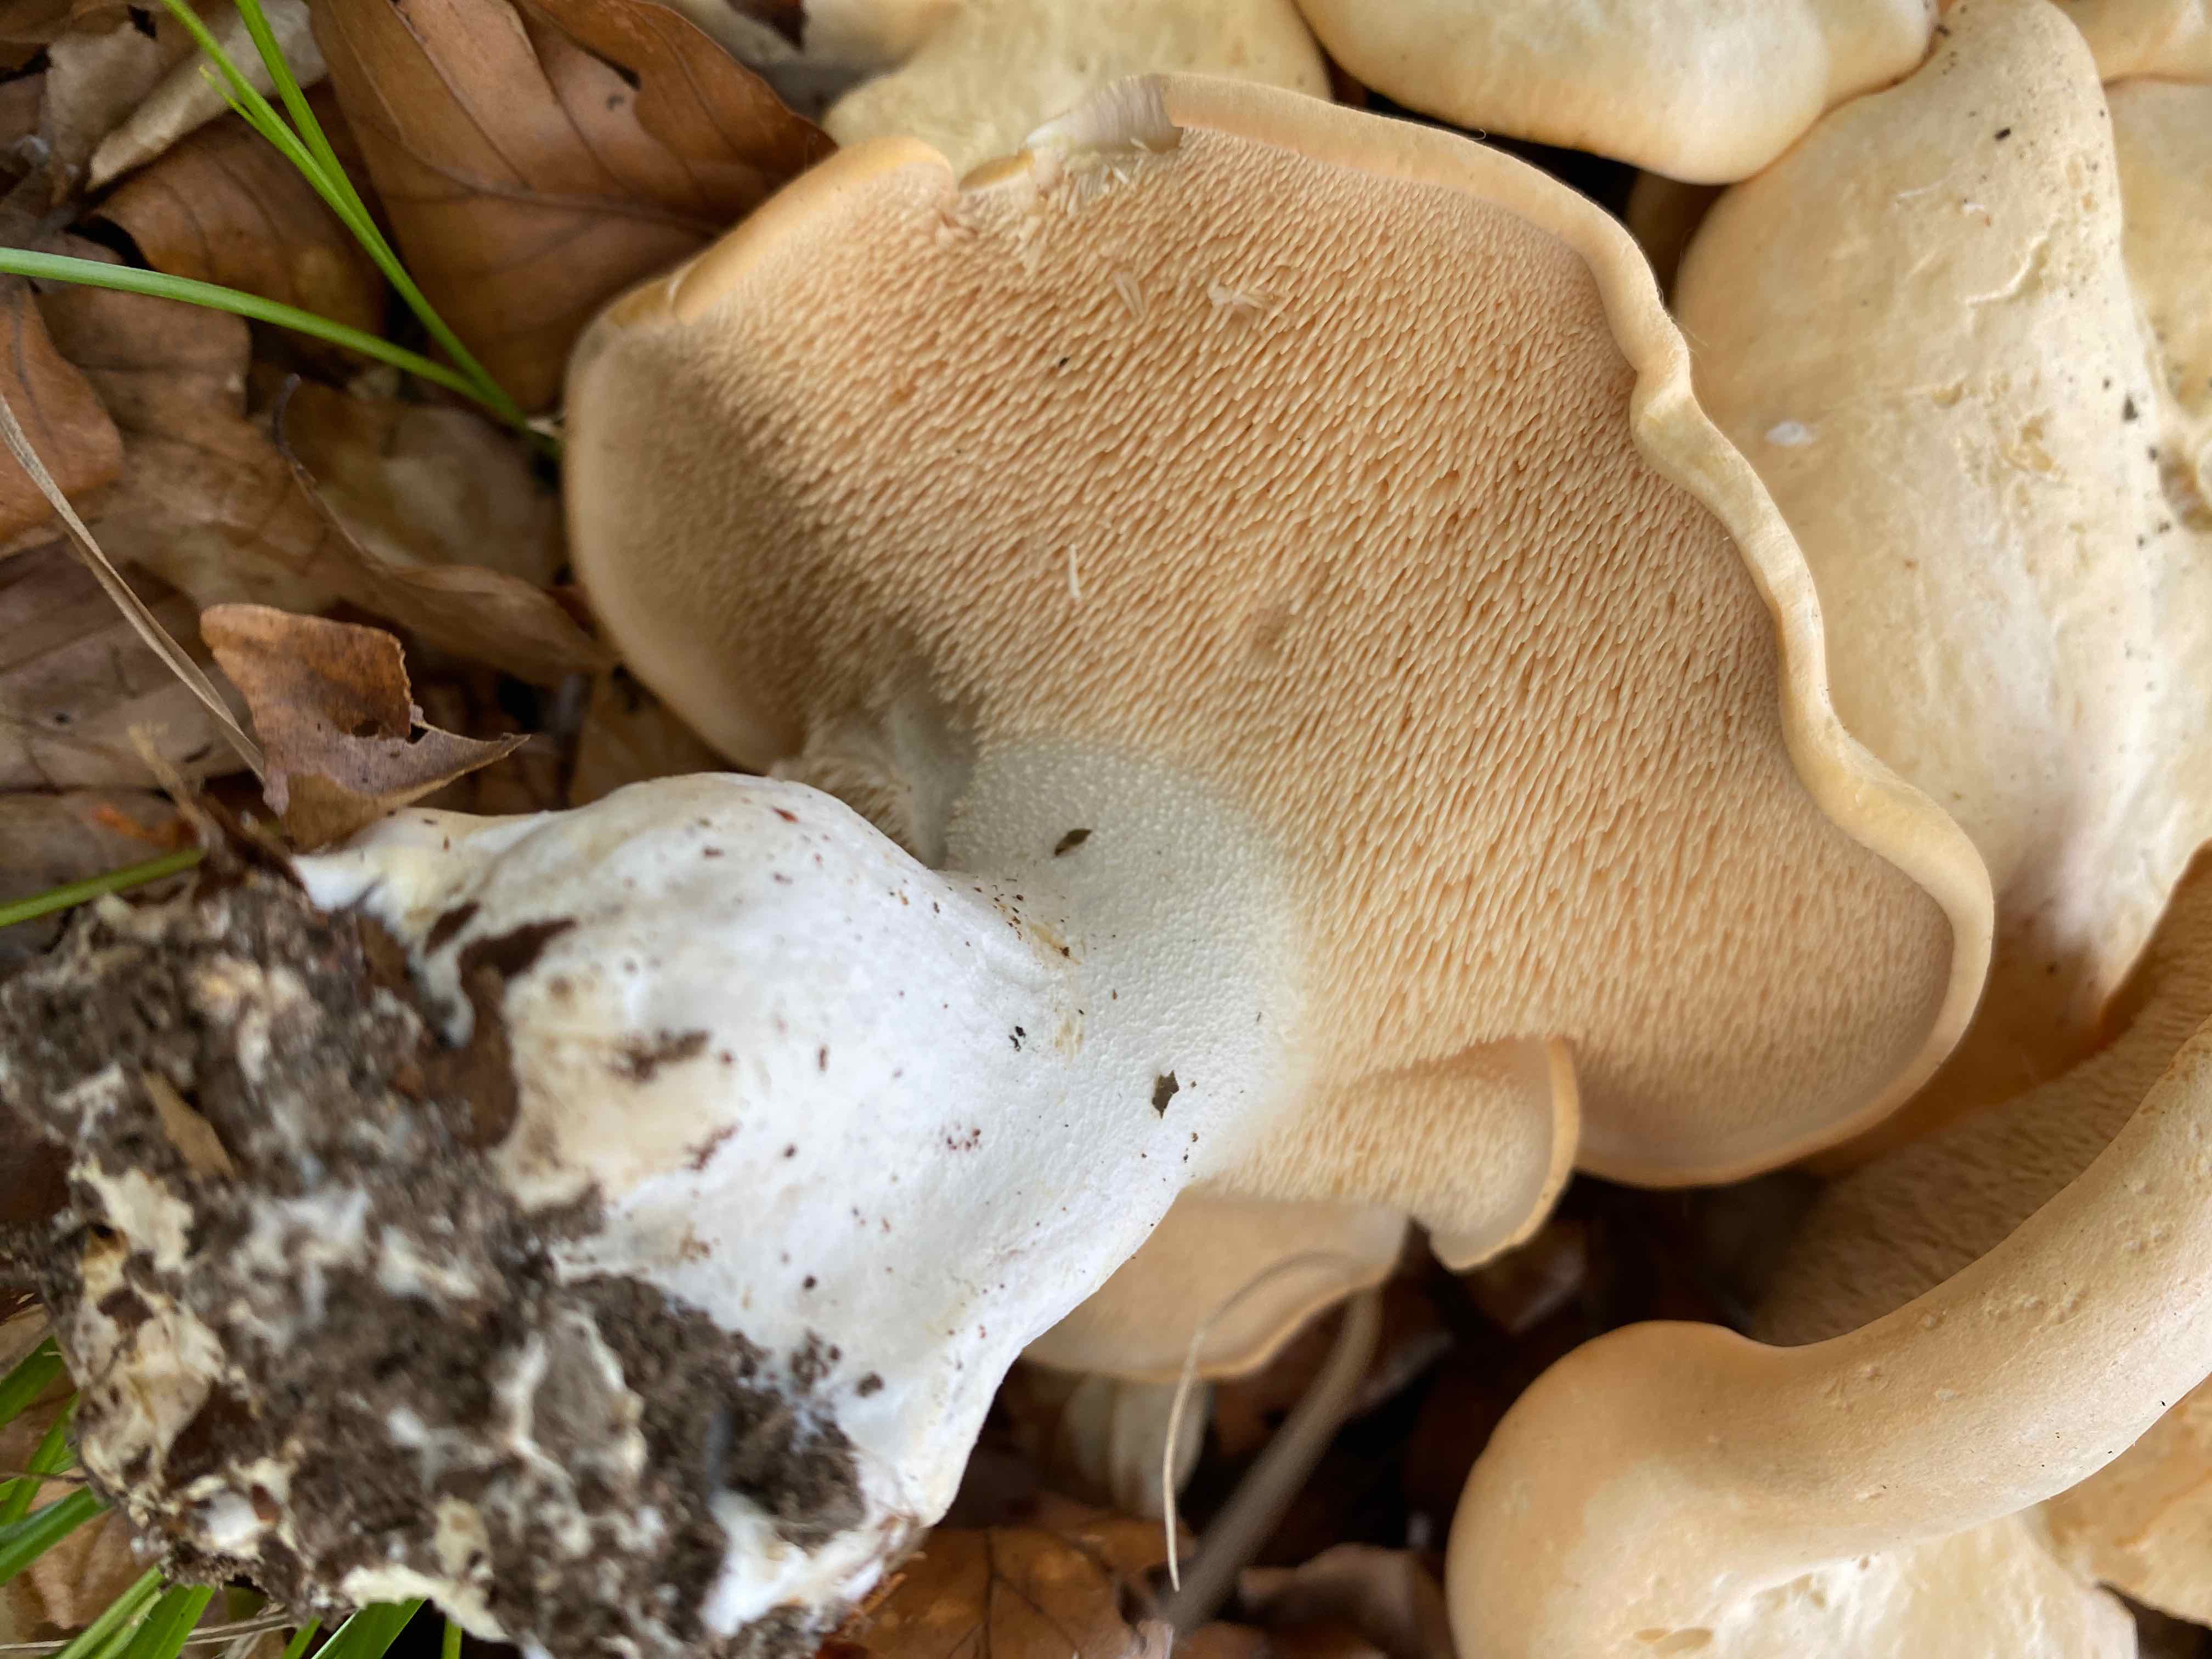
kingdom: Fungi
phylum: Basidiomycota
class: Agaricomycetes
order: Cantharellales
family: Hydnaceae
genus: Hydnum
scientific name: Hydnum repandum
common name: almindelig pigsvamp
